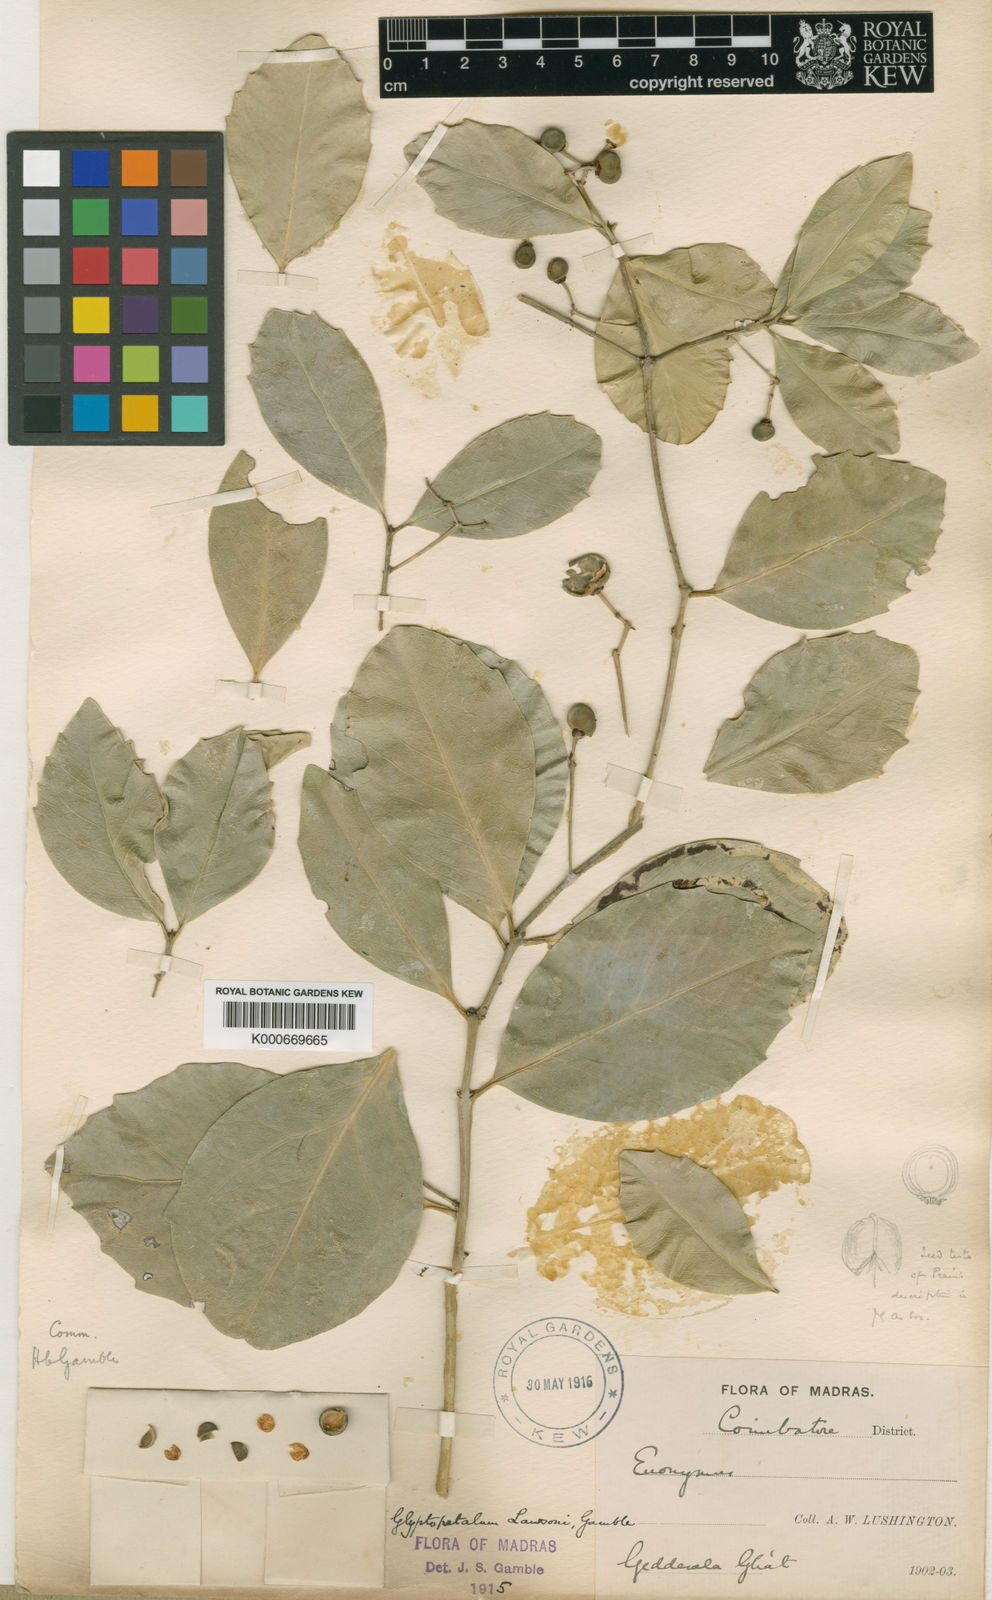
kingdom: Plantae
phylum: Tracheophyta
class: Magnoliopsida
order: Celastrales
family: Celastraceae
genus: Euonymus
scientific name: Euonymus lawsonii
